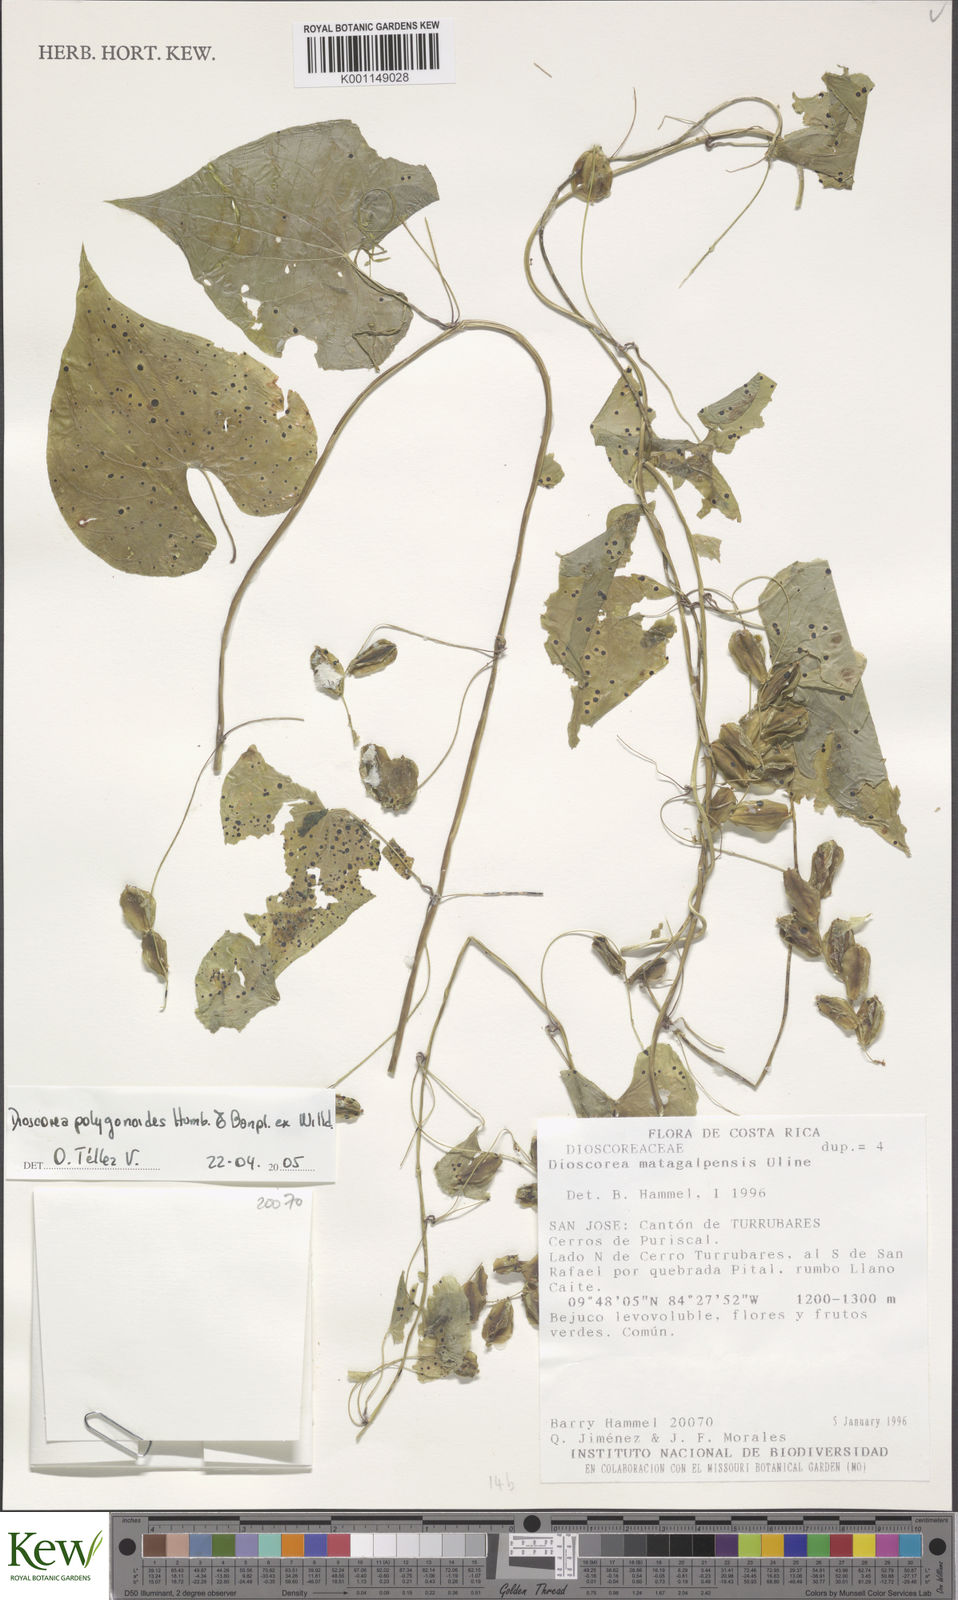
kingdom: Plantae
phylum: Tracheophyta
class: Liliopsida
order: Dioscoreales
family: Dioscoreaceae
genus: Dioscorea
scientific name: Dioscorea polygonoides
